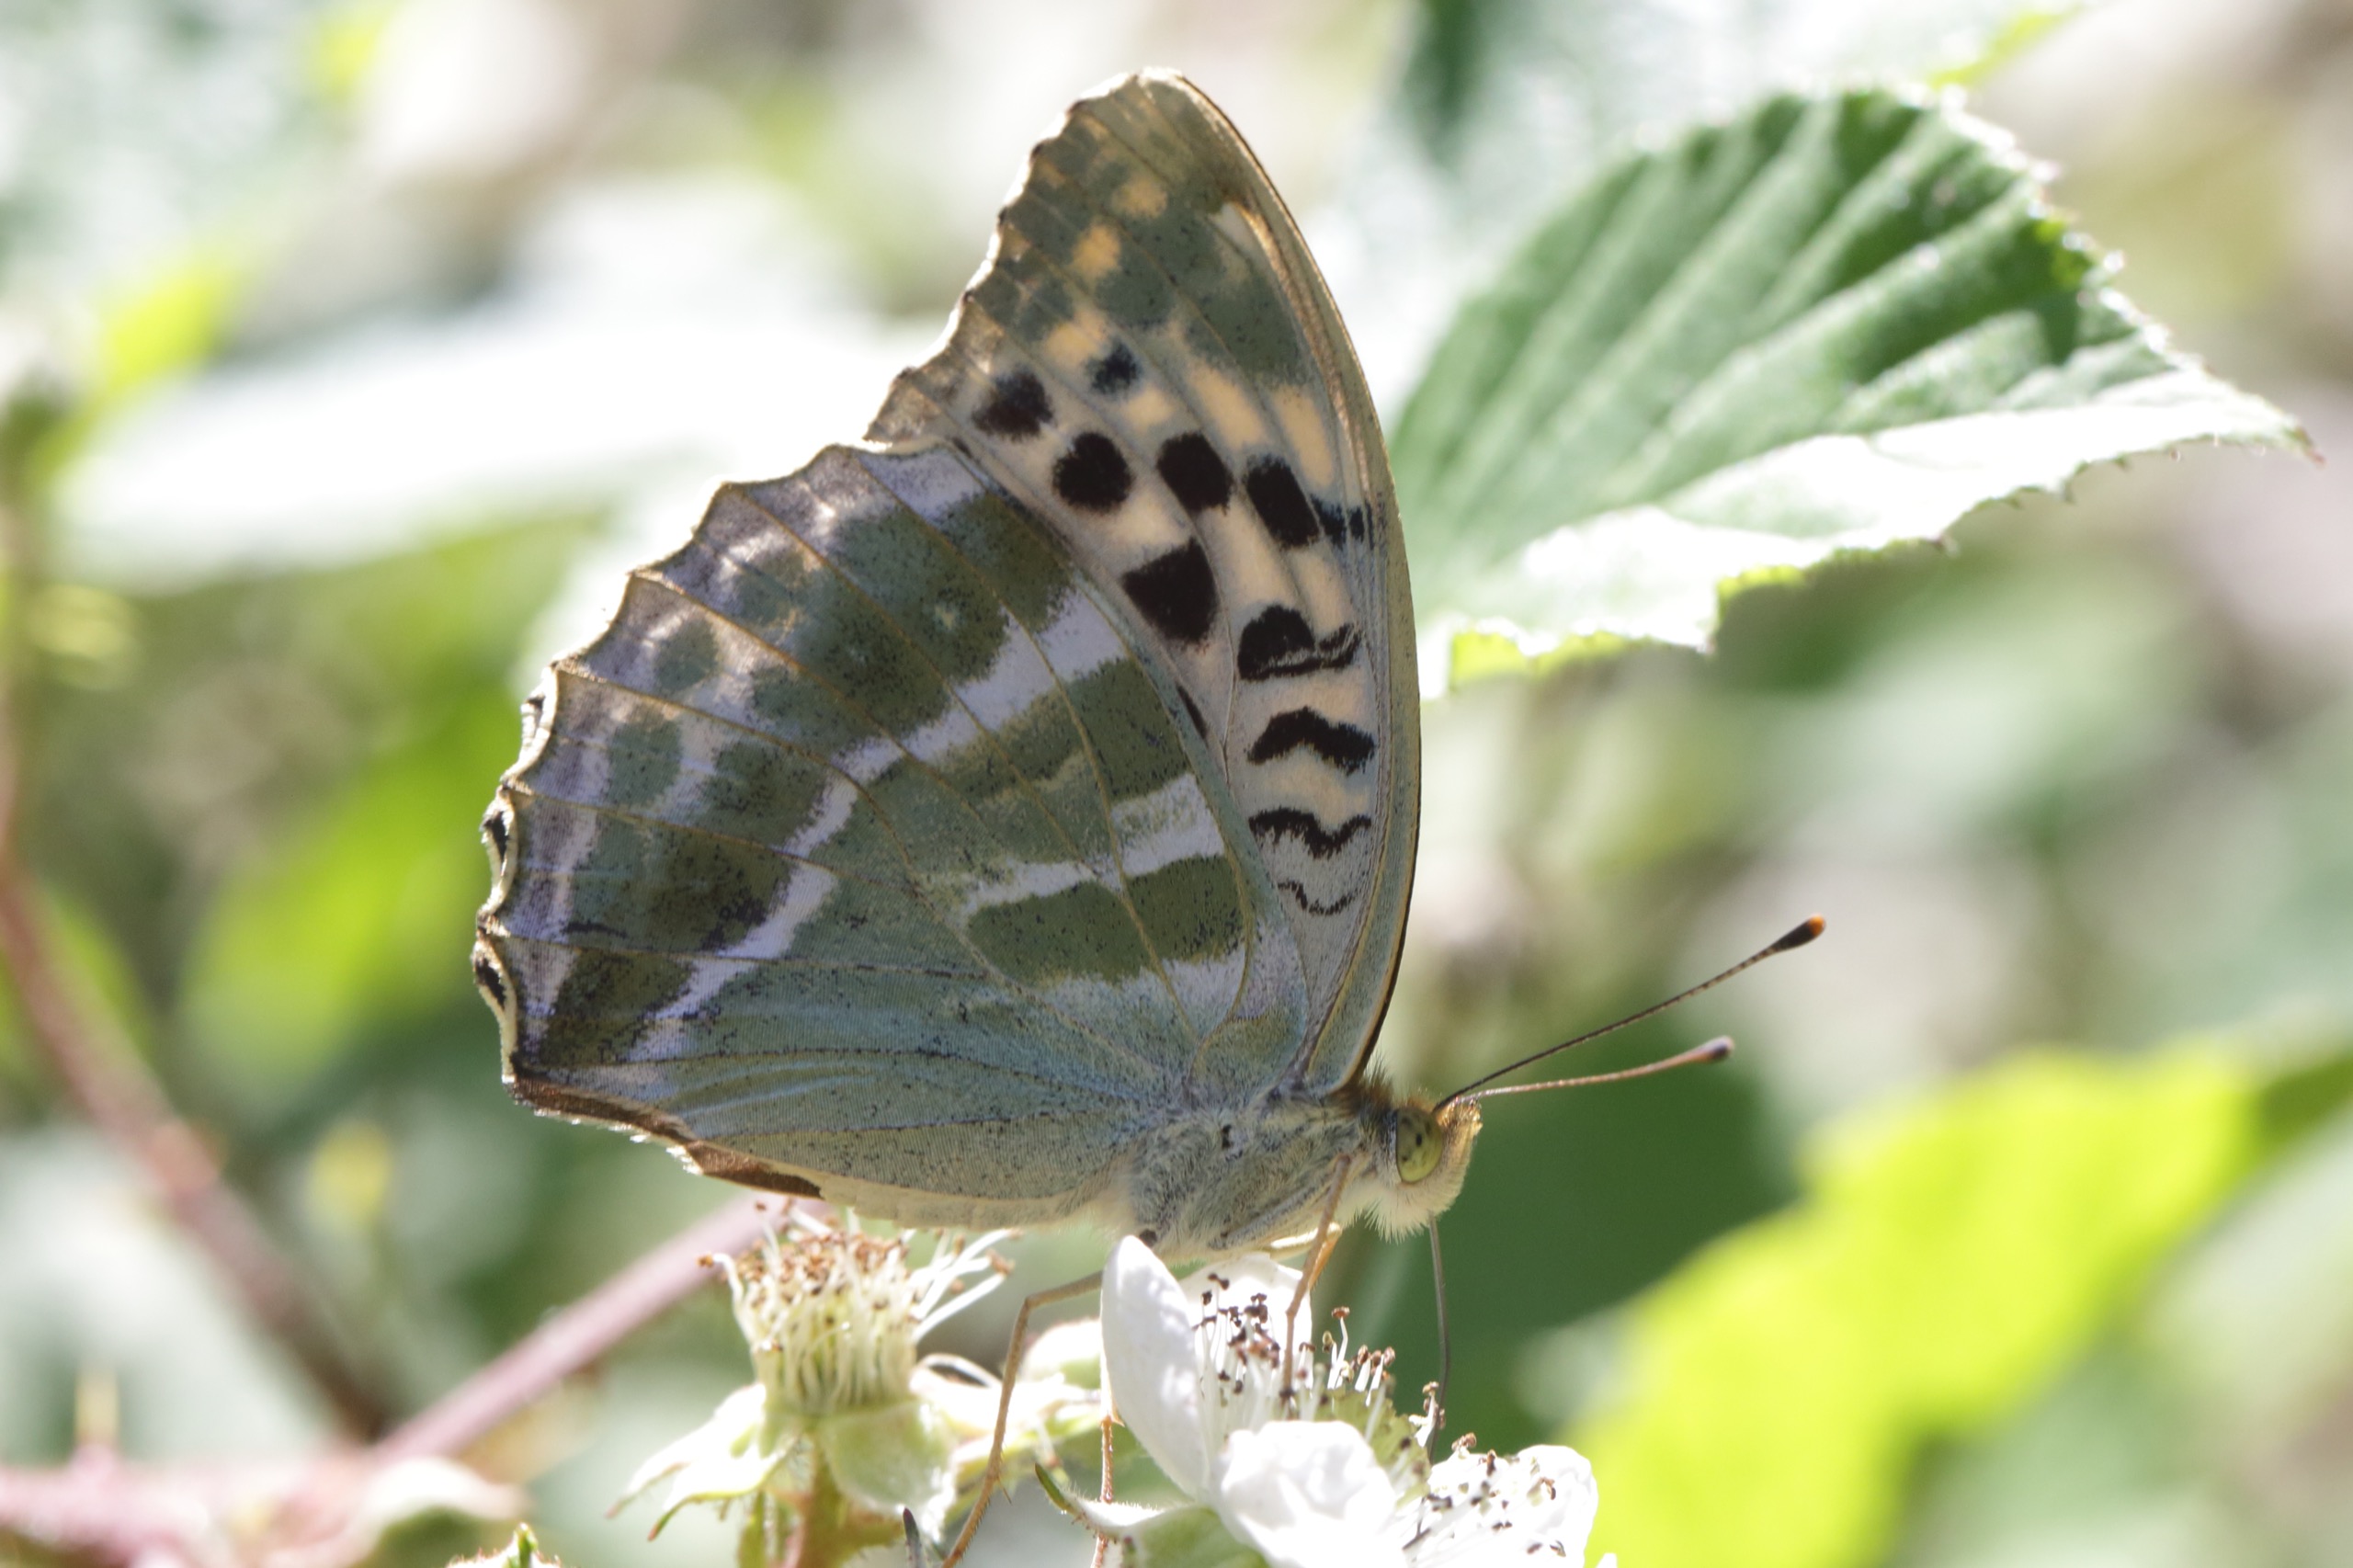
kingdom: Animalia
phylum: Arthropoda
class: Insecta
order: Lepidoptera
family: Nymphalidae
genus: Argynnis
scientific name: Argynnis paphia
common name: Kejserkåbe
